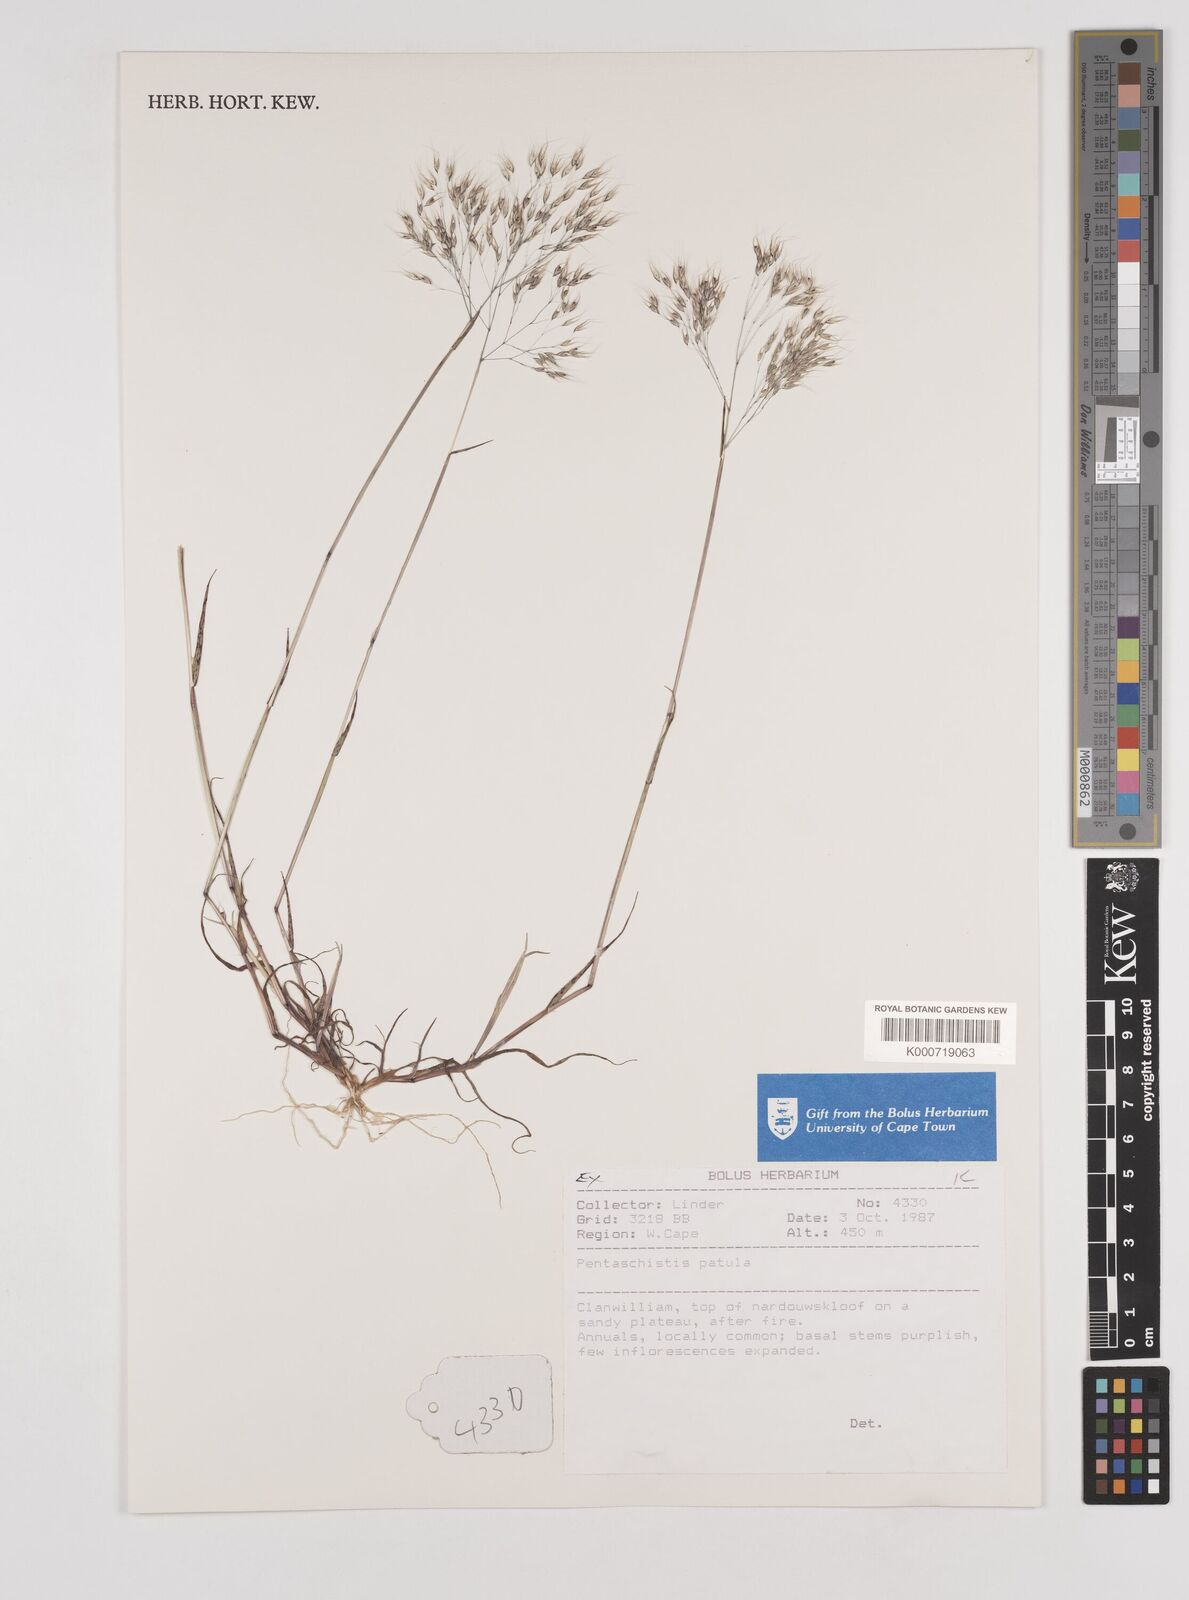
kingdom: Plantae
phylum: Tracheophyta
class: Liliopsida
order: Poales
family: Poaceae
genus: Pentameris
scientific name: Pentameris patula
